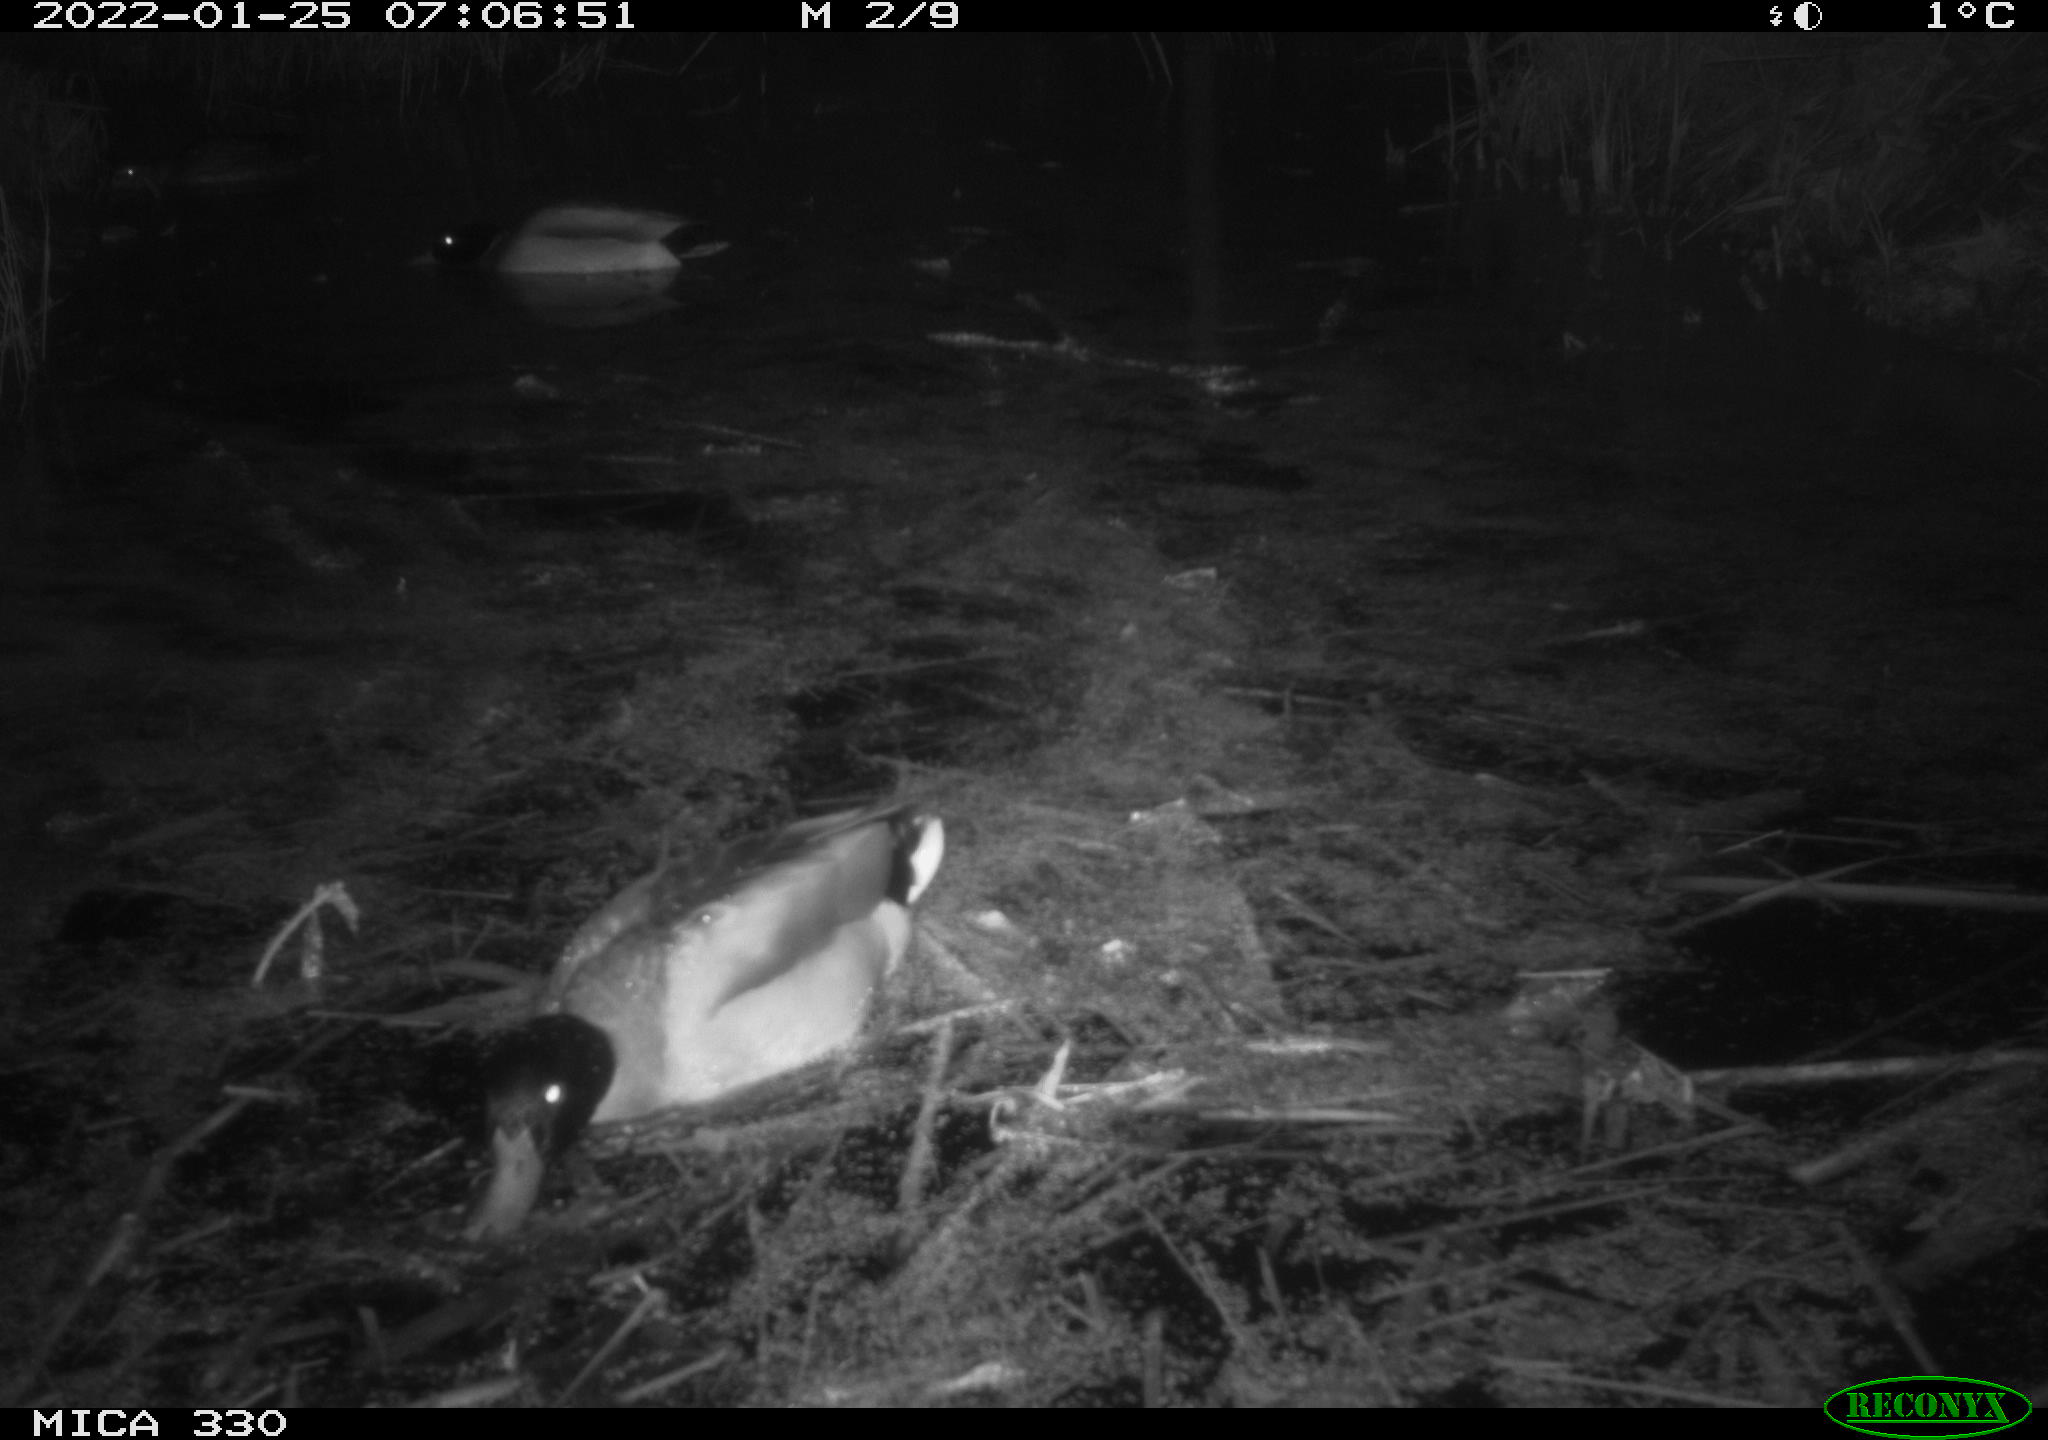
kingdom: Animalia
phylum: Chordata
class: Aves
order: Anseriformes
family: Anatidae
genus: Anas
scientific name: Anas platyrhynchos
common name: Mallard
